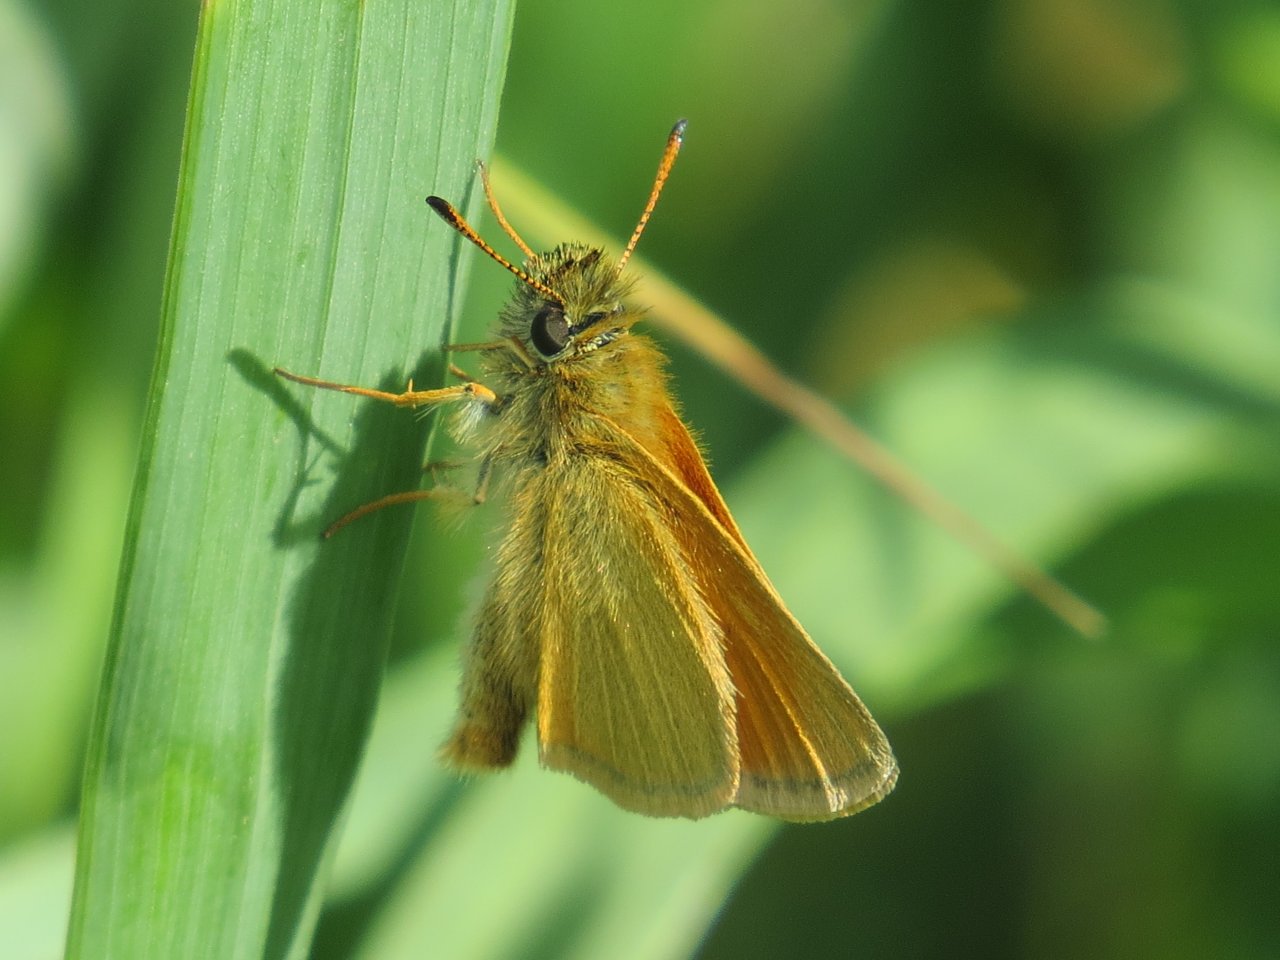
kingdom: Animalia
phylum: Arthropoda
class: Insecta
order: Lepidoptera
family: Hesperiidae
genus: Thymelicus
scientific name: Thymelicus lineola
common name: European Skipper
